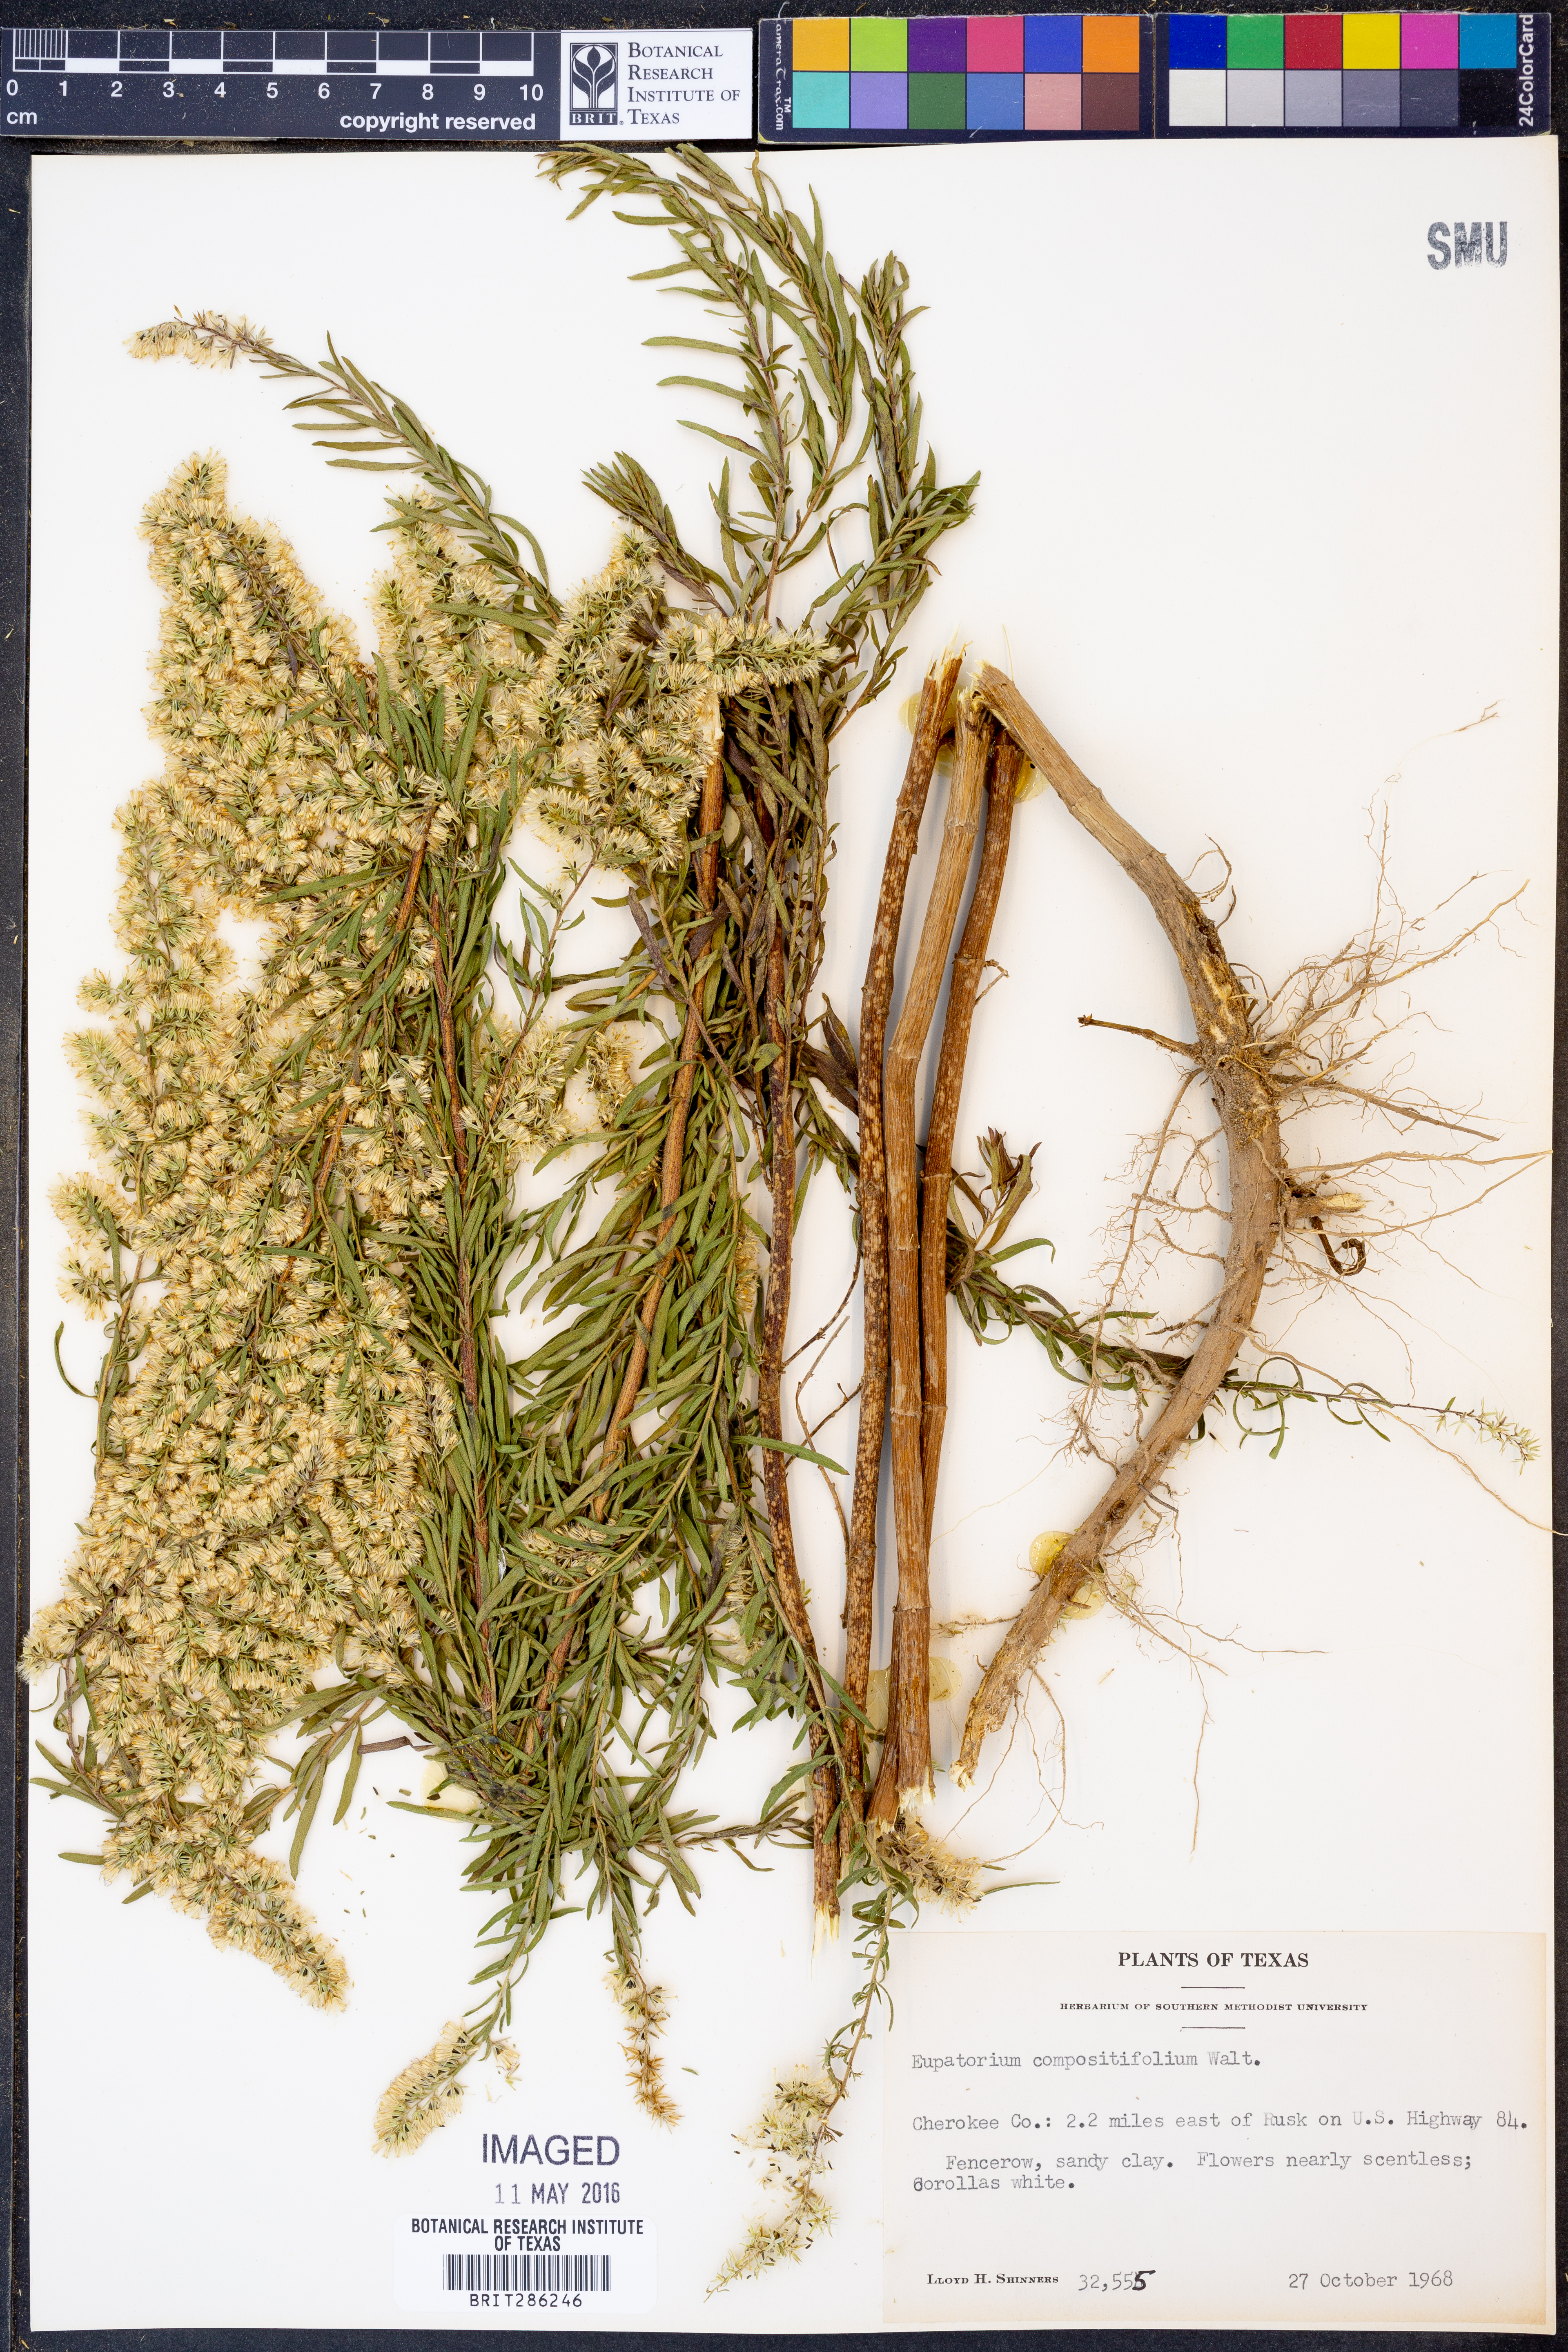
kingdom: Plantae
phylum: Tracheophyta
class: Magnoliopsida
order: Asterales
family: Asteraceae
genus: Eupatorium
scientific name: Eupatorium compositifolium
